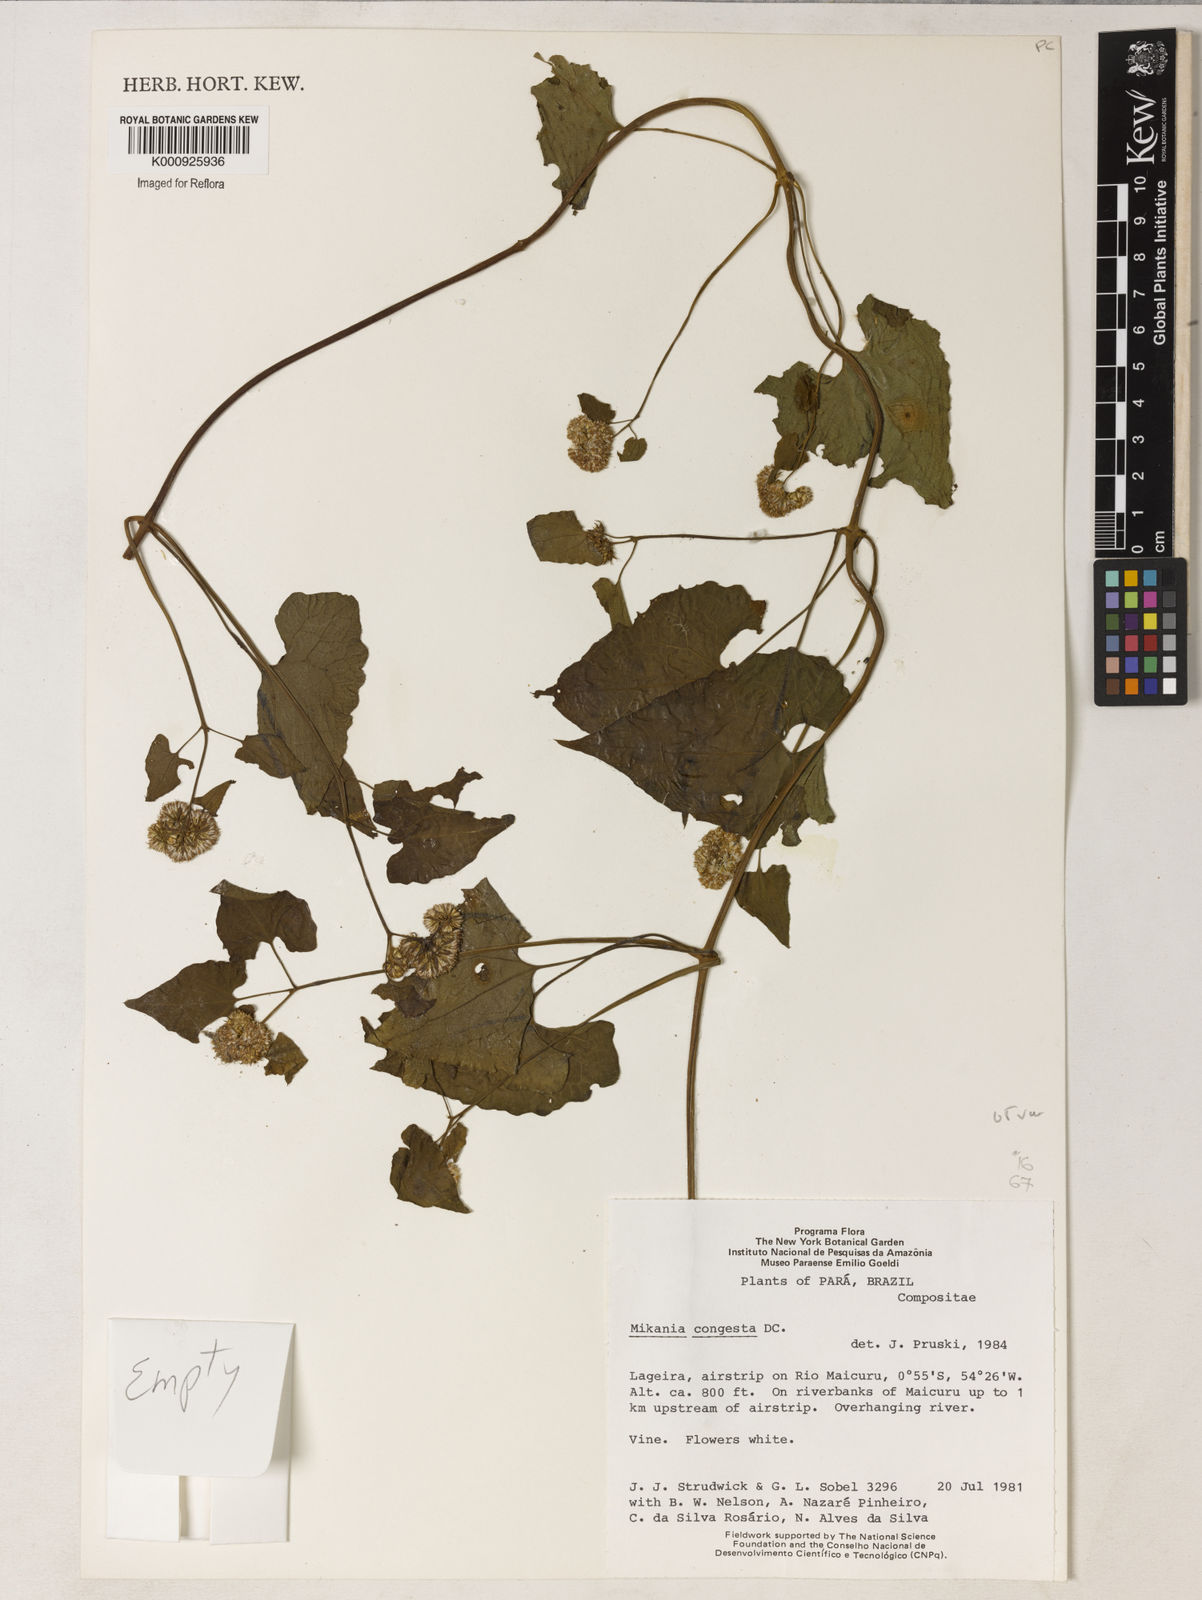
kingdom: Plantae
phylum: Tracheophyta
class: Magnoliopsida
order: Asterales
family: Asteraceae
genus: Mikania
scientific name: Mikania congesta
